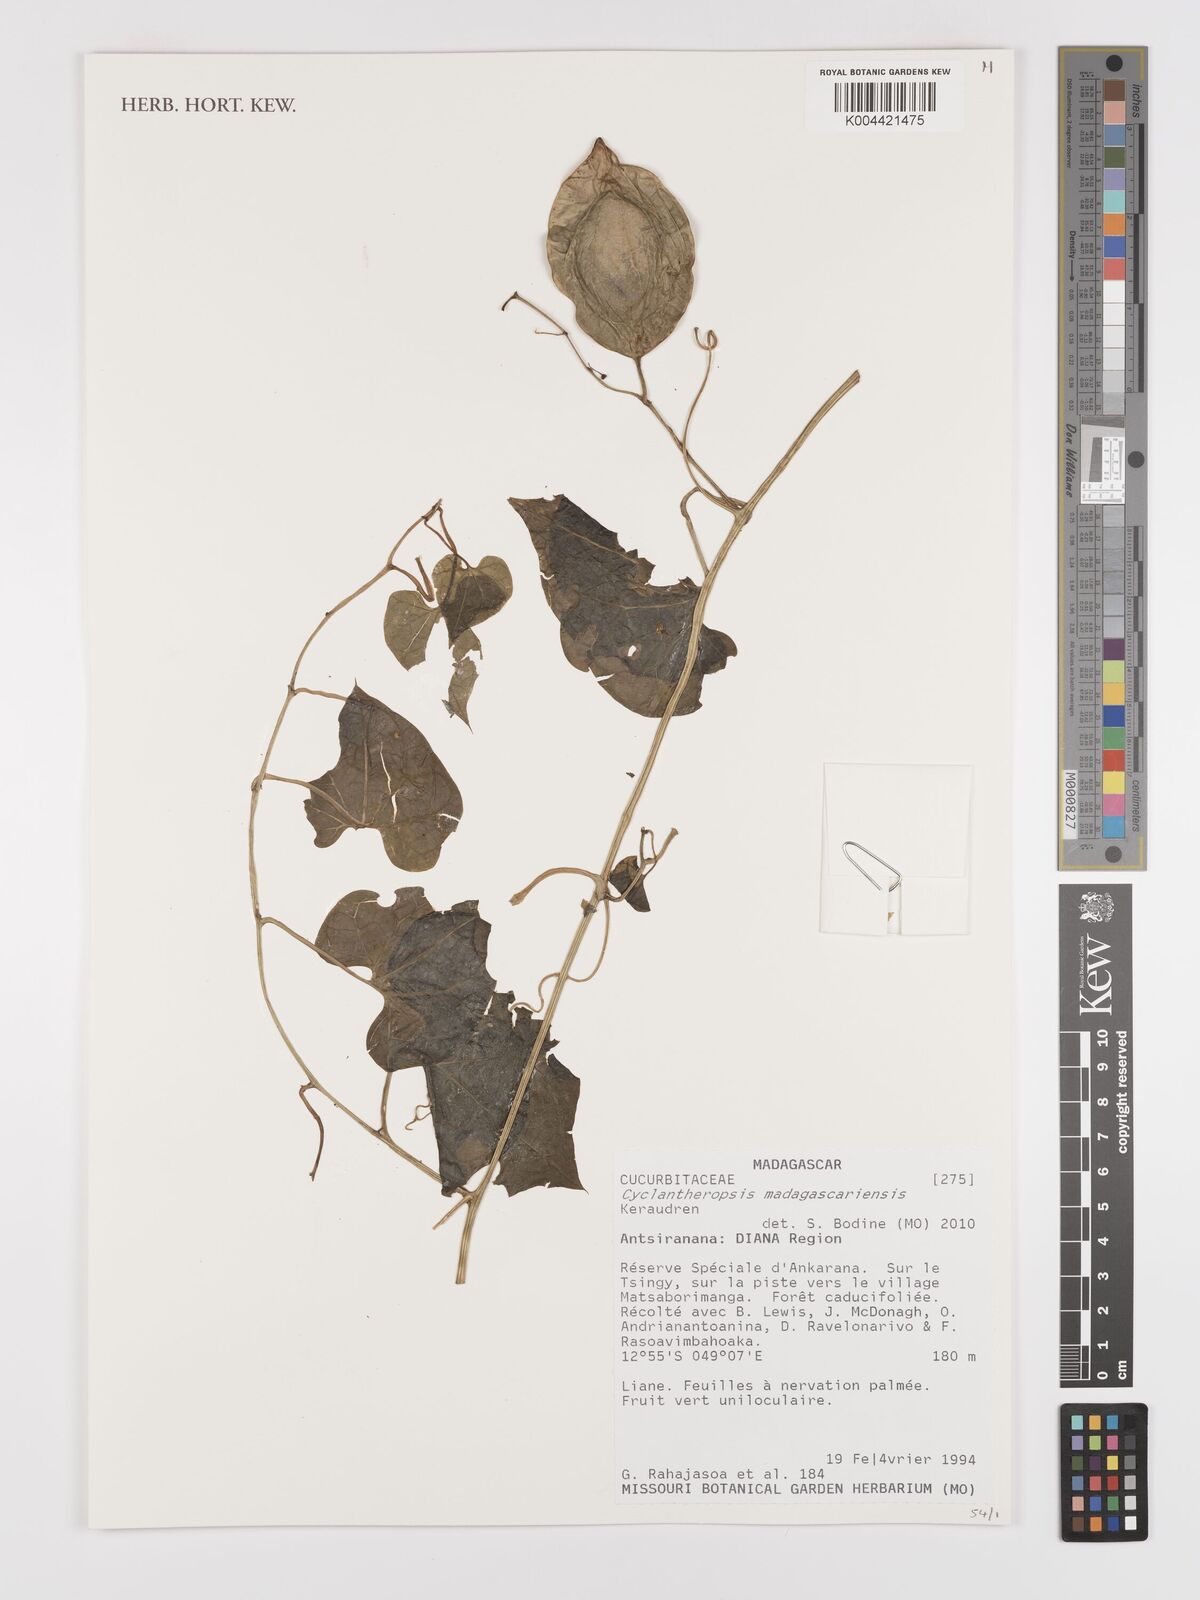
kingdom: Plantae
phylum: Tracheophyta
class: Magnoliopsida
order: Cucurbitales
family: Cucurbitaceae
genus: Cyclantheropsis
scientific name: Cyclantheropsis madagascariensis
